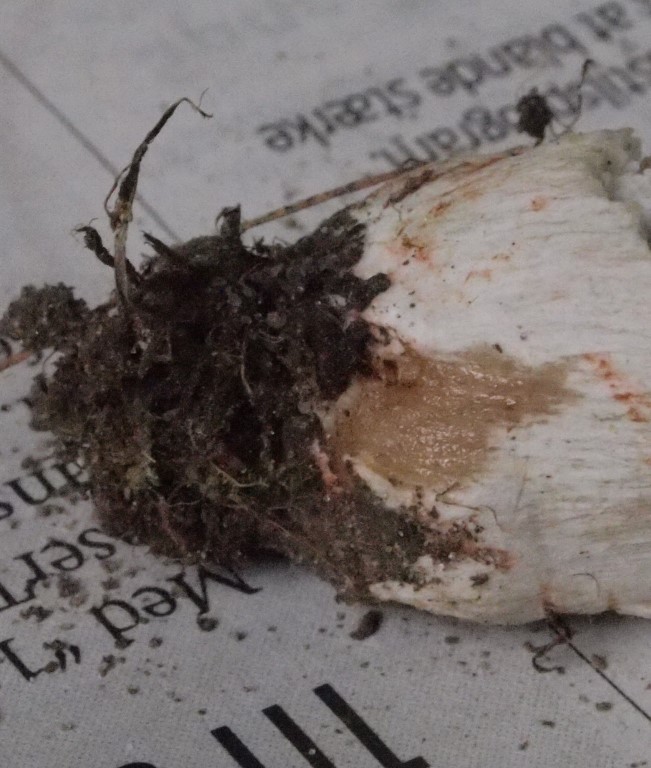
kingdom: Fungi
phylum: Basidiomycota
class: Agaricomycetes
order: Russulales
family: Russulaceae
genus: Russula
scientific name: Russula recondita
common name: mild kam-skørhat
